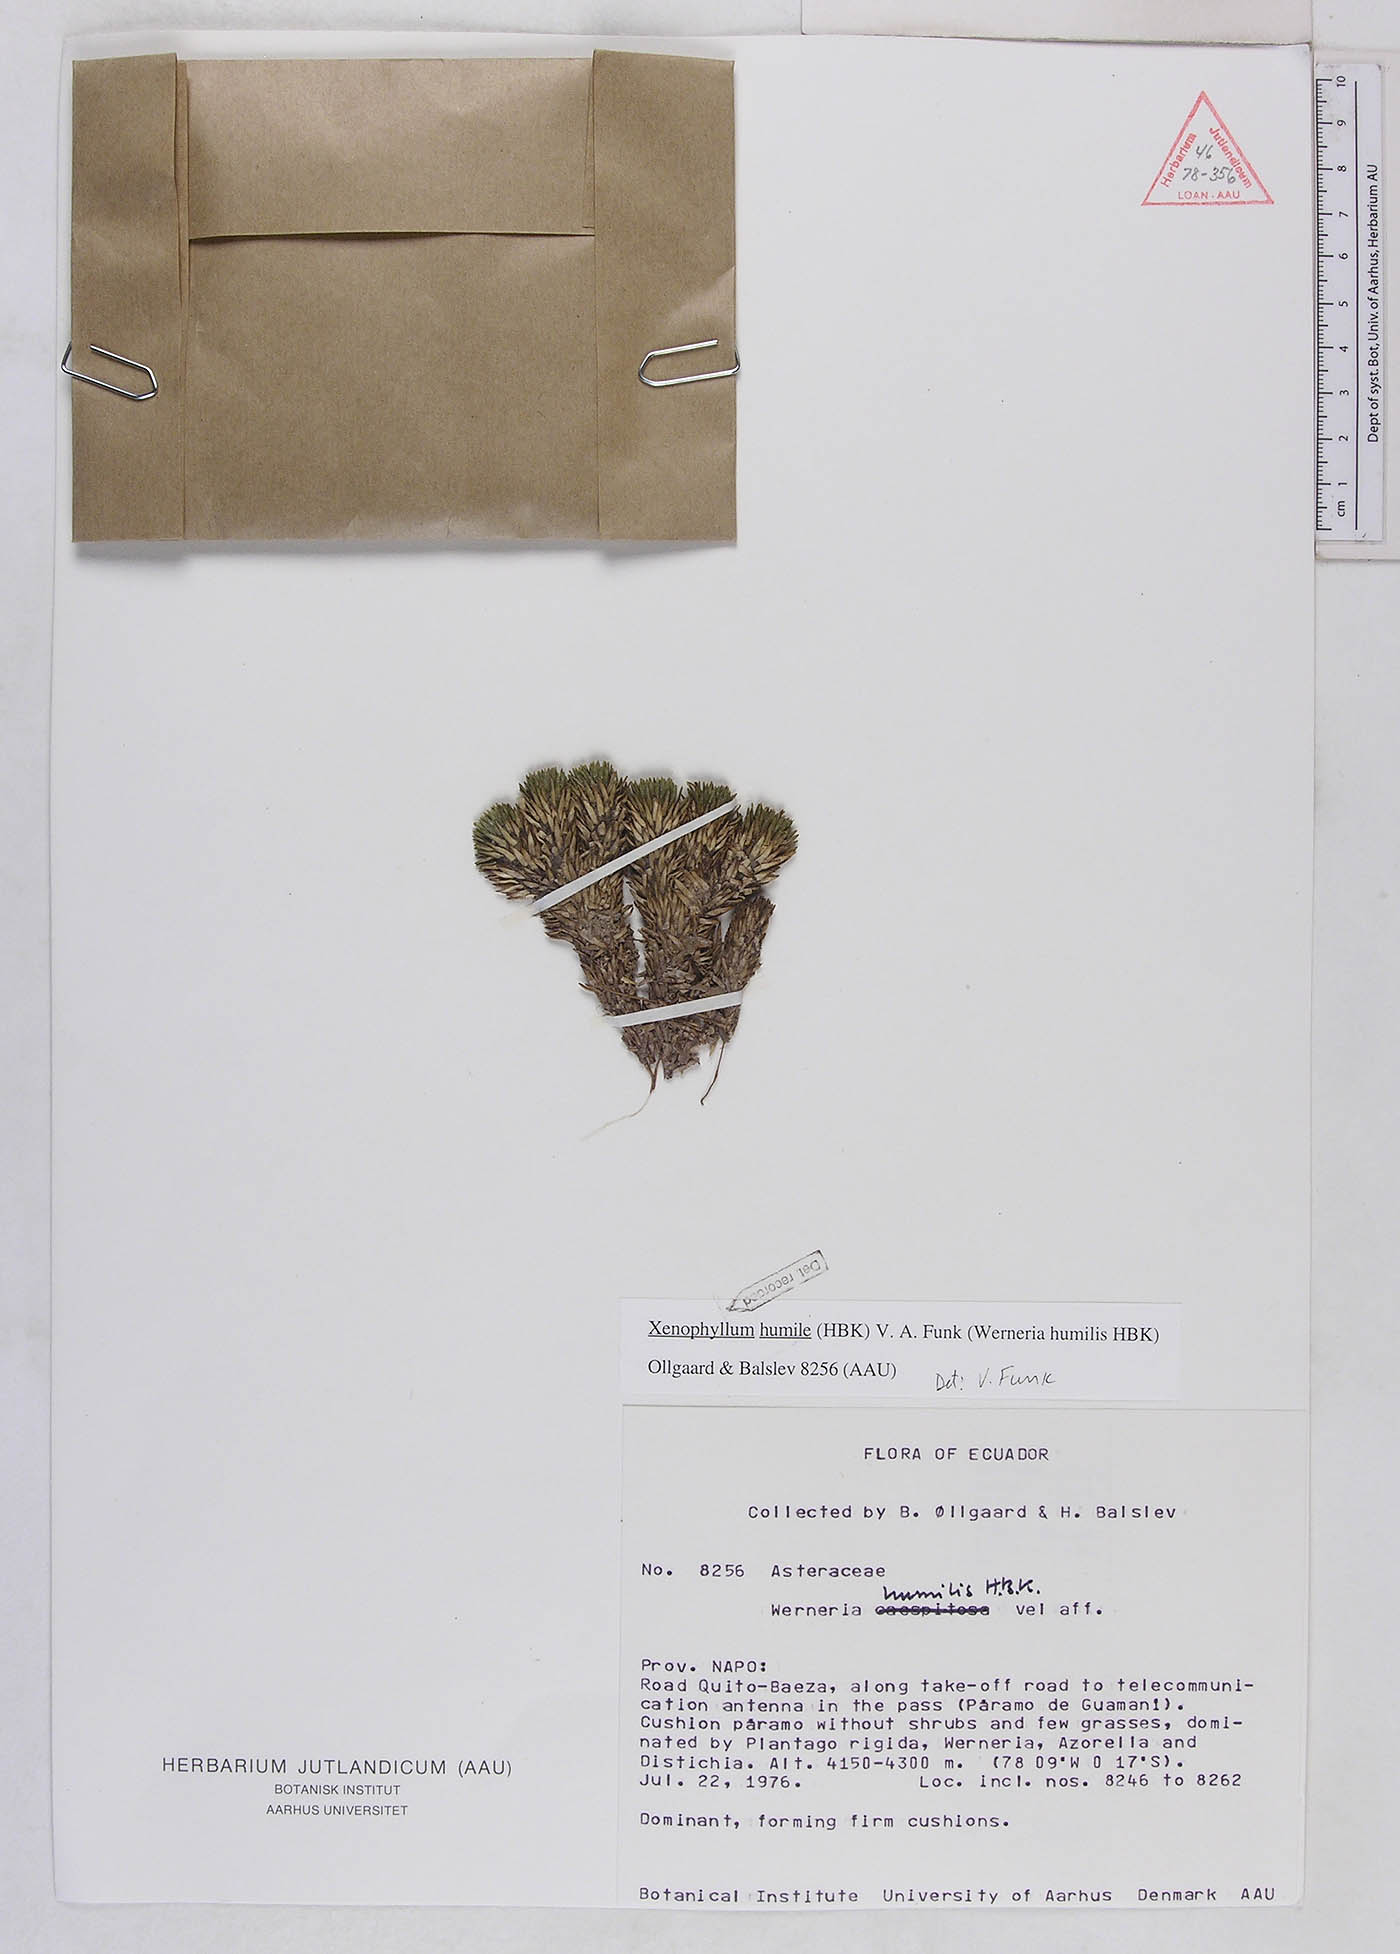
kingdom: Plantae
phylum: Tracheophyta
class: Magnoliopsida
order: Asterales
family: Asteraceae
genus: Werneria
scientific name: Werneria humilis
